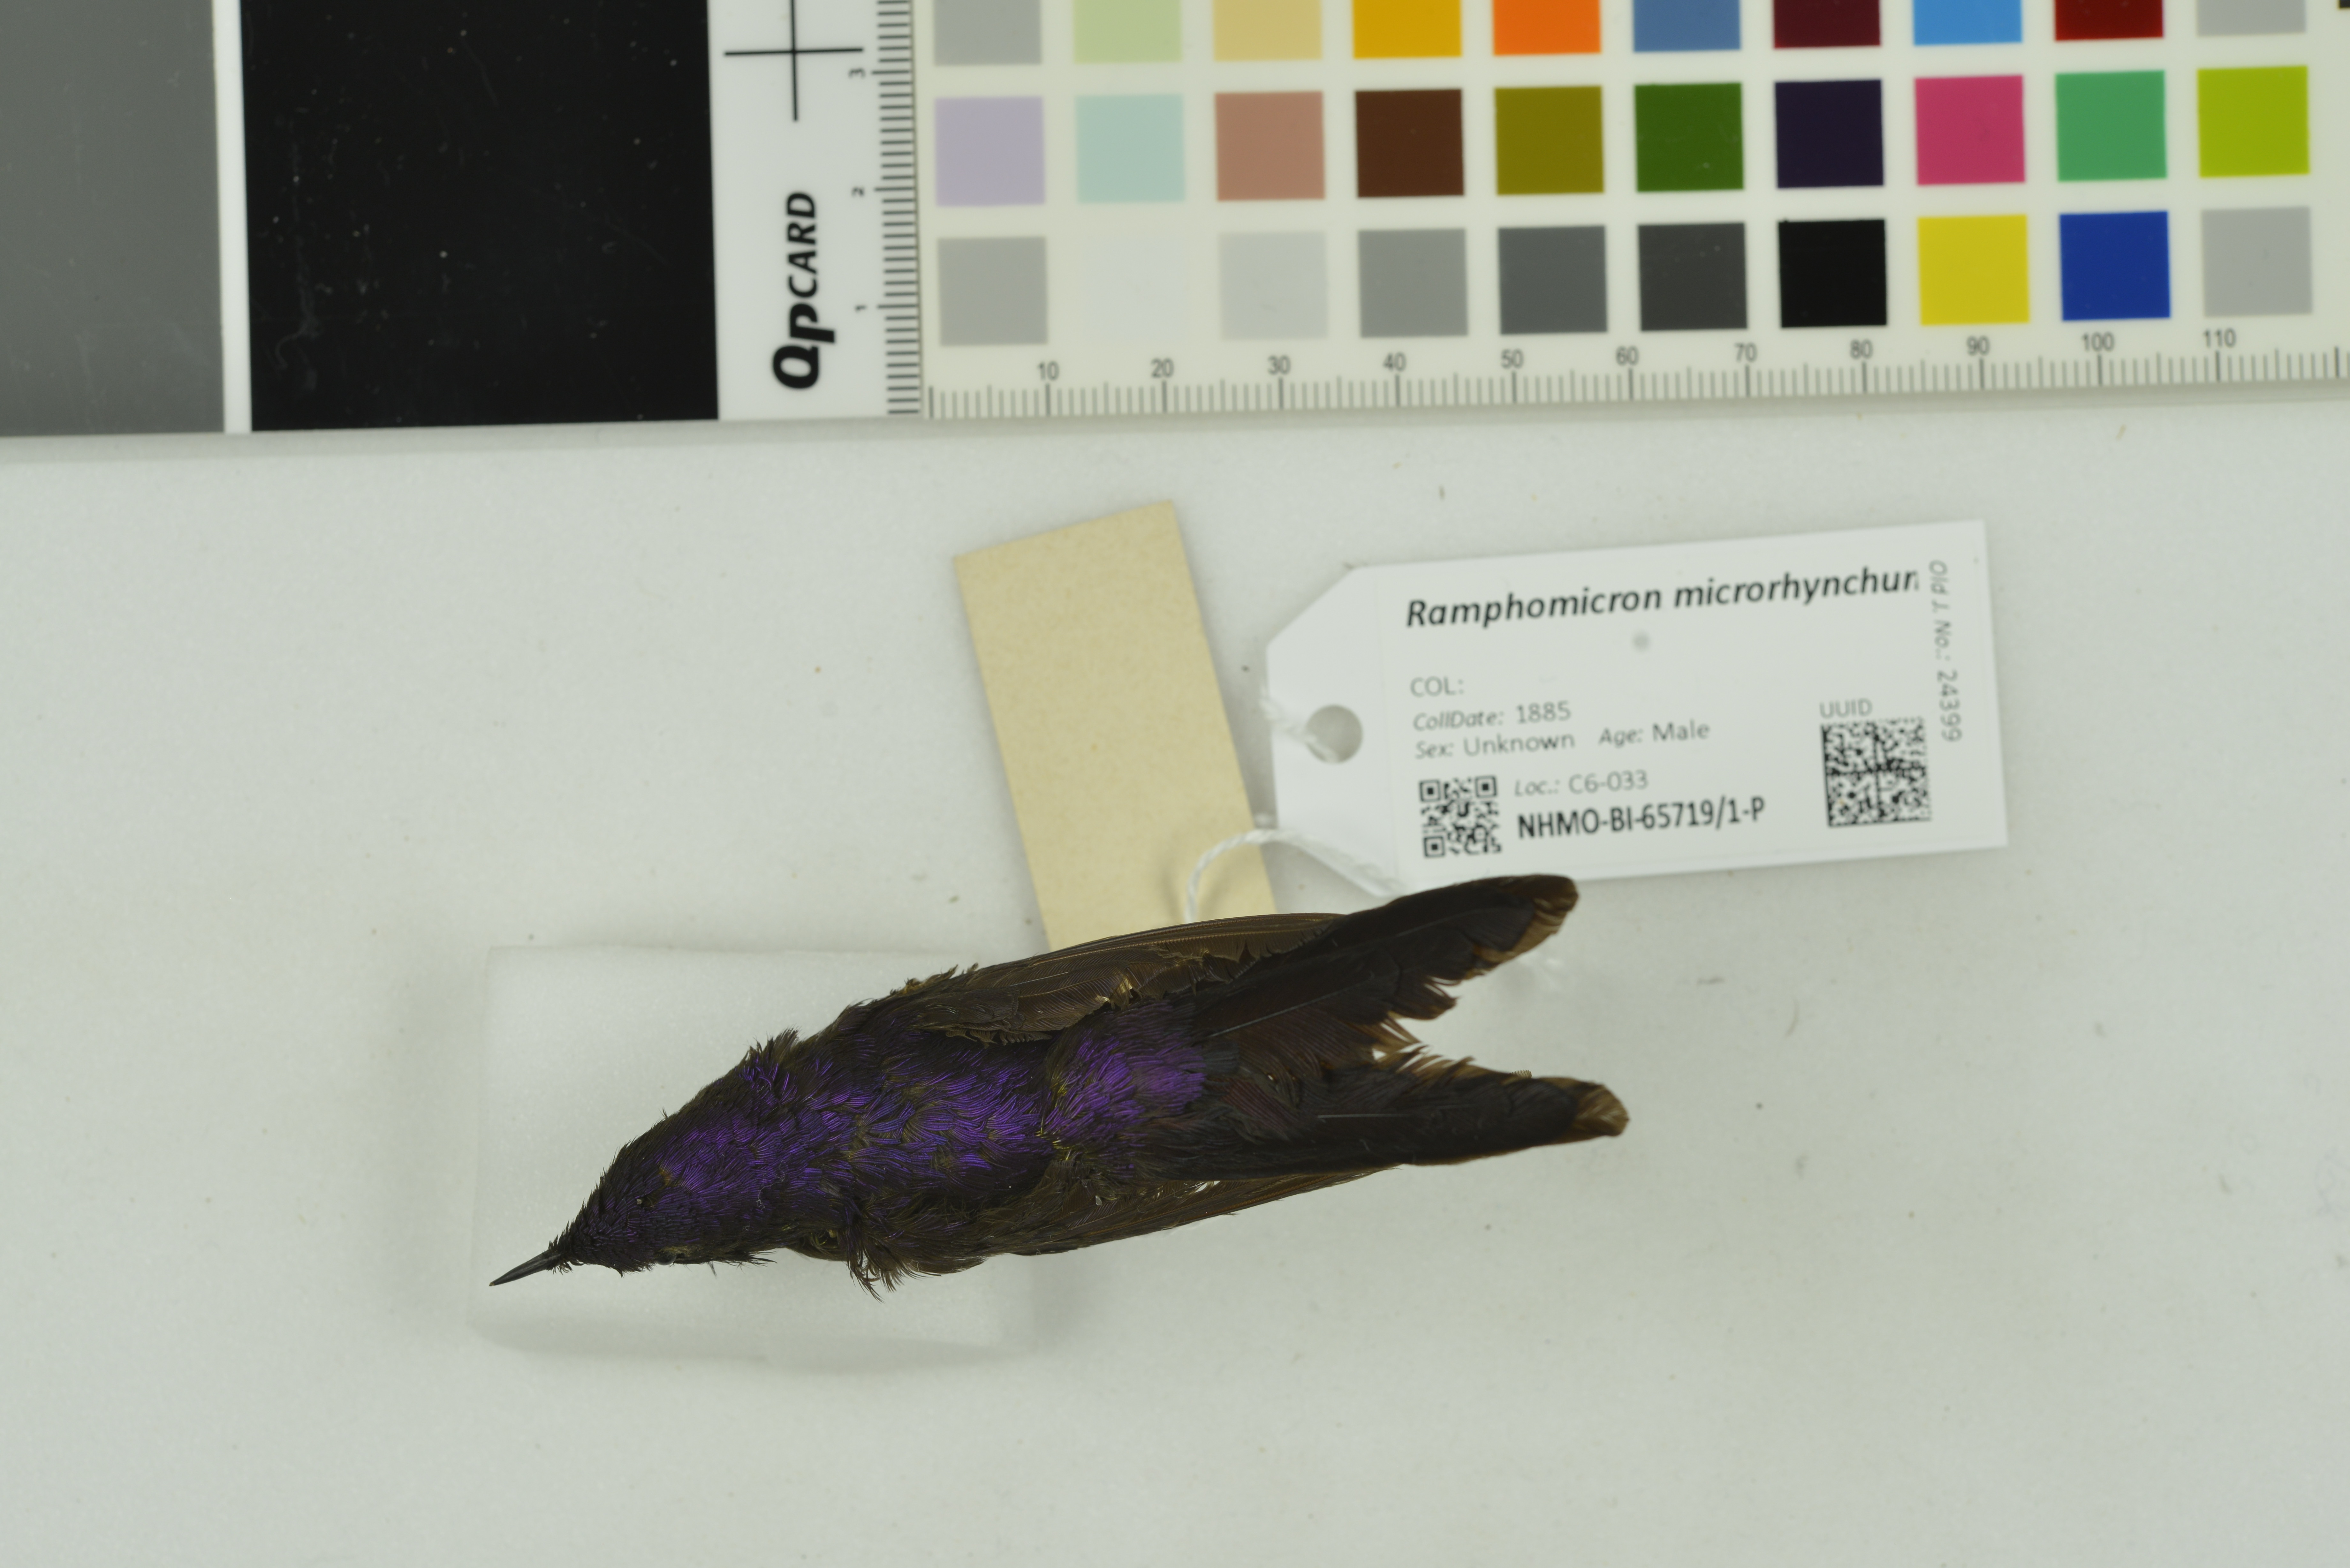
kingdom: Animalia
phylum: Chordata
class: Aves
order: Apodiformes
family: Trochilidae
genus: Ramphomicron
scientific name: Ramphomicron microrhynchum
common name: Purple-backed thornbill
